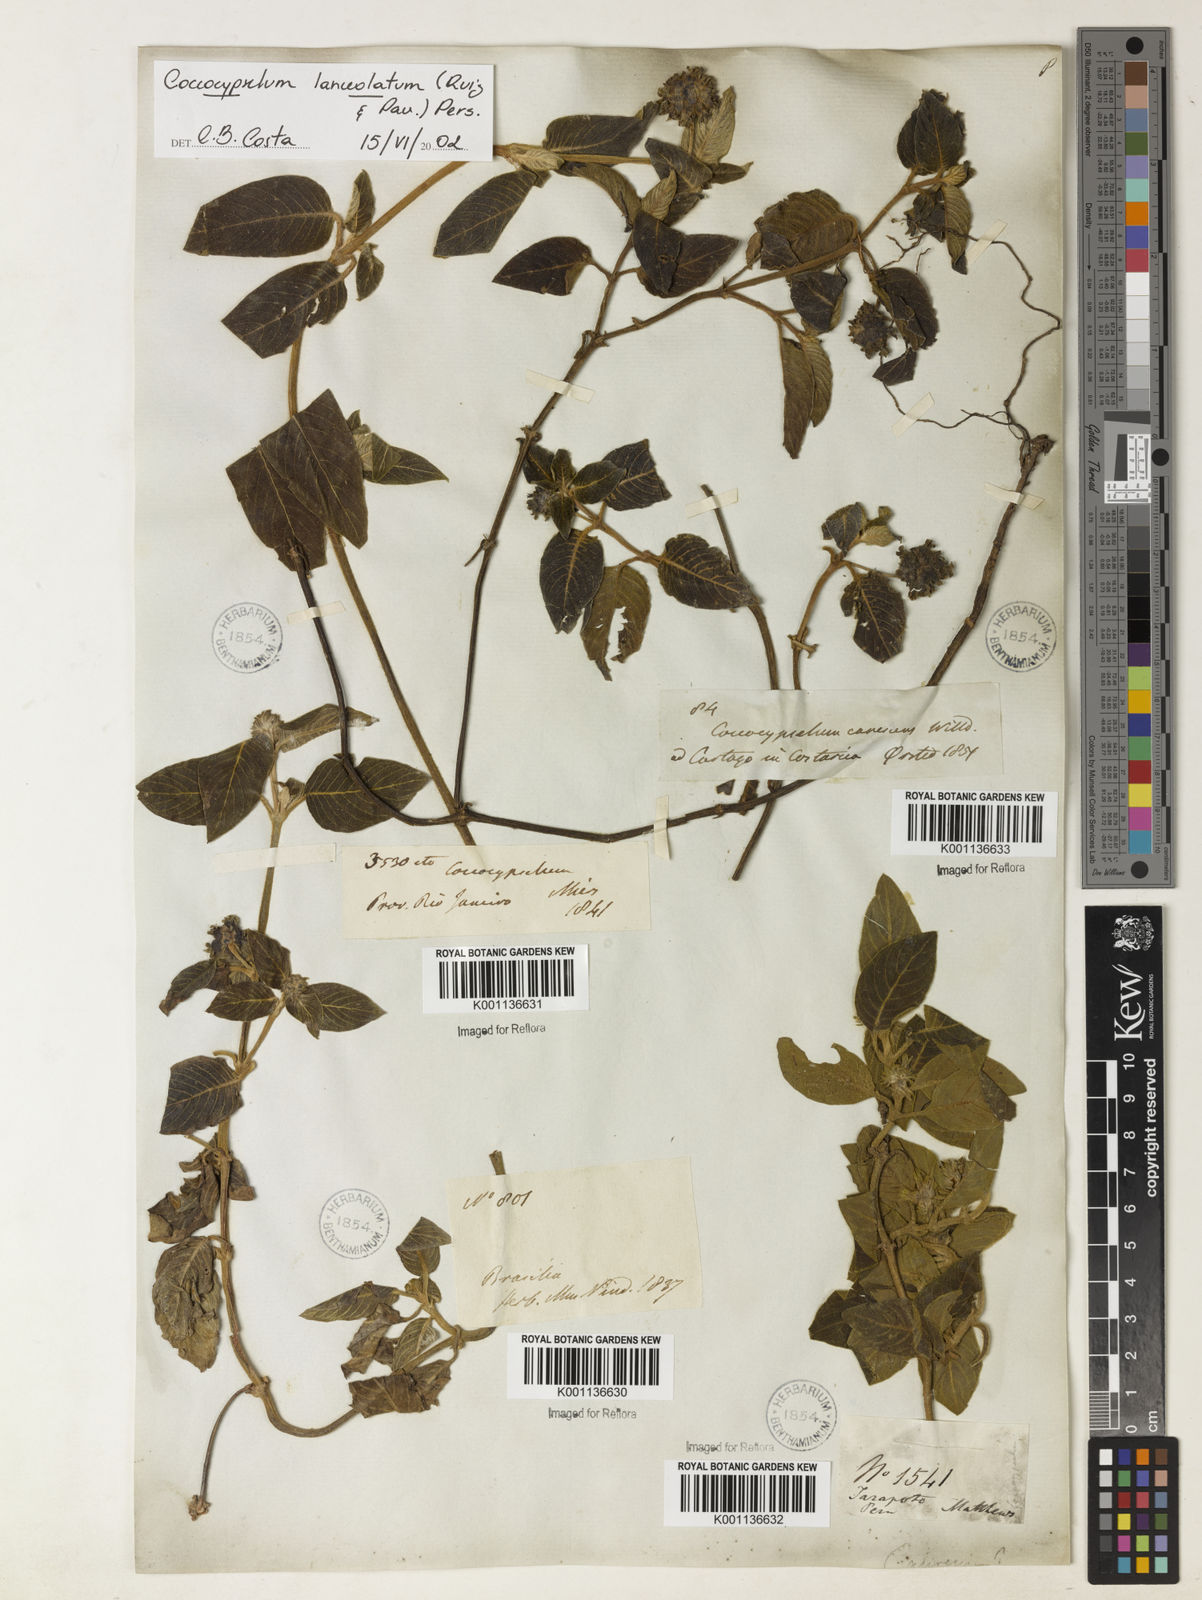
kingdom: Plantae
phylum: Tracheophyta
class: Magnoliopsida
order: Gentianales
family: Rubiaceae
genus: Coccocypselum
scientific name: Coccocypselum lanceolatum
